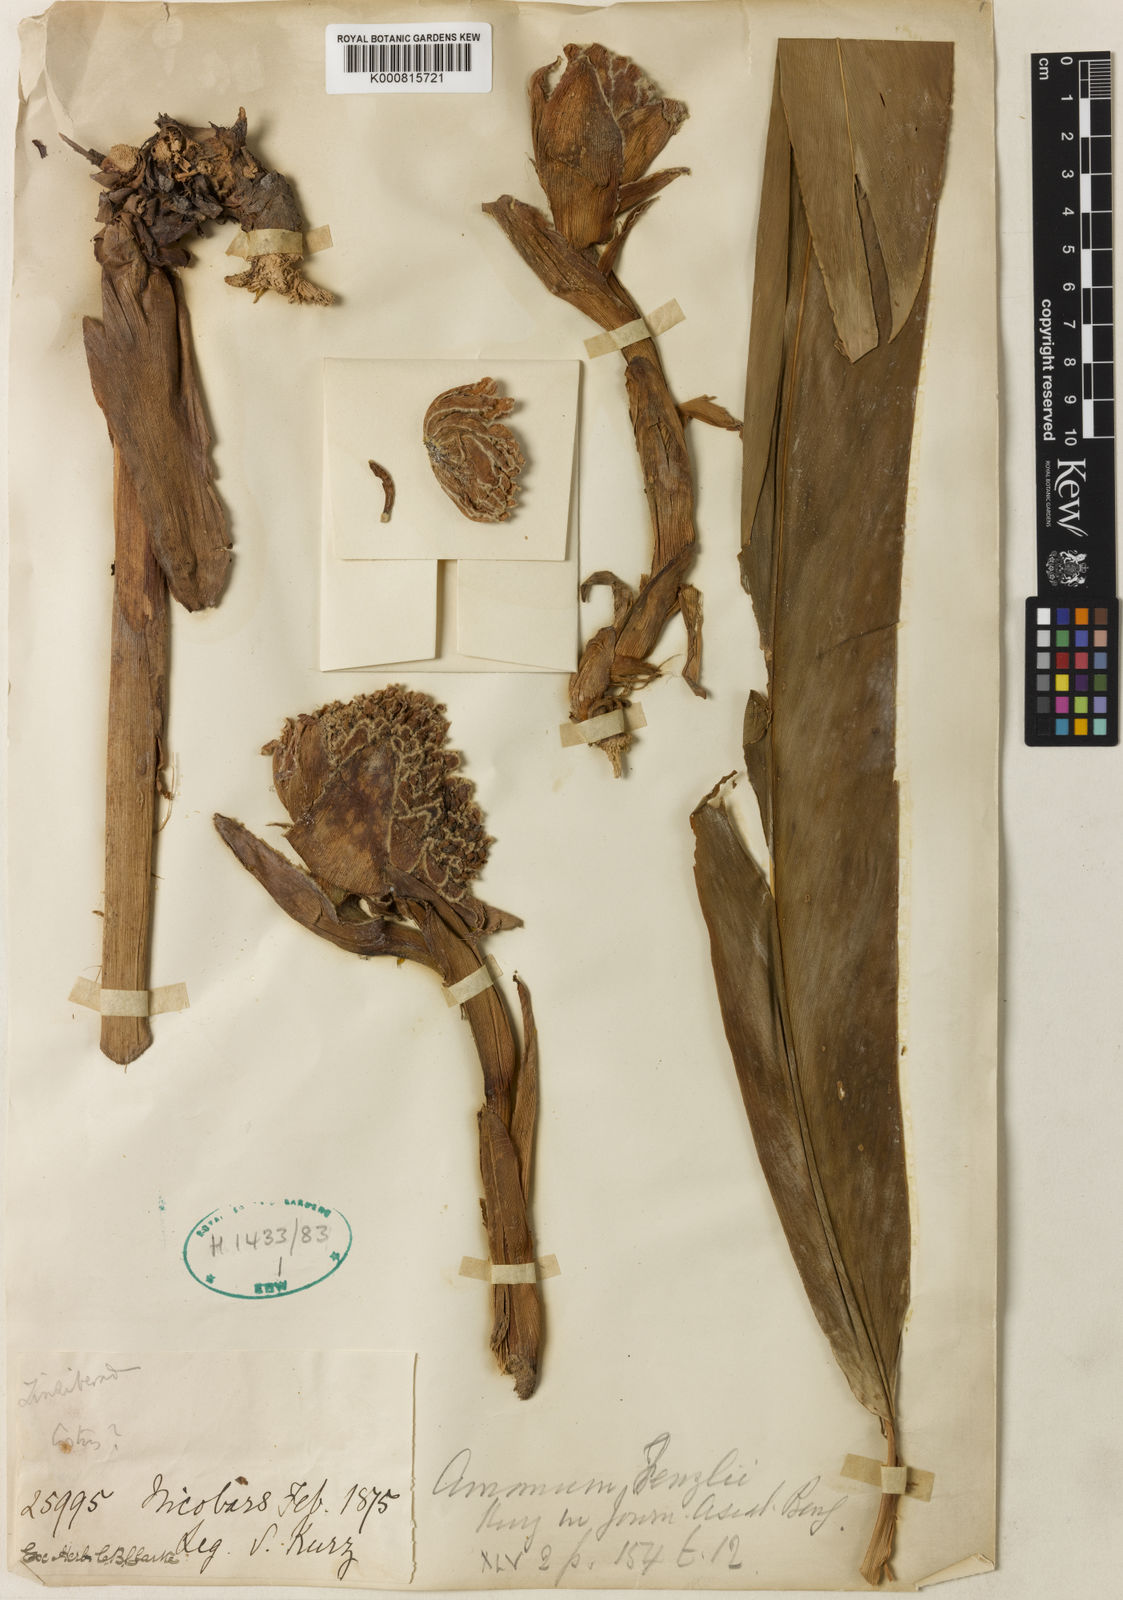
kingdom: Plantae
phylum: Tracheophyta
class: Liliopsida
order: Zingiberales
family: Zingiberaceae
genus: Etlingera
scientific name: Etlingera
